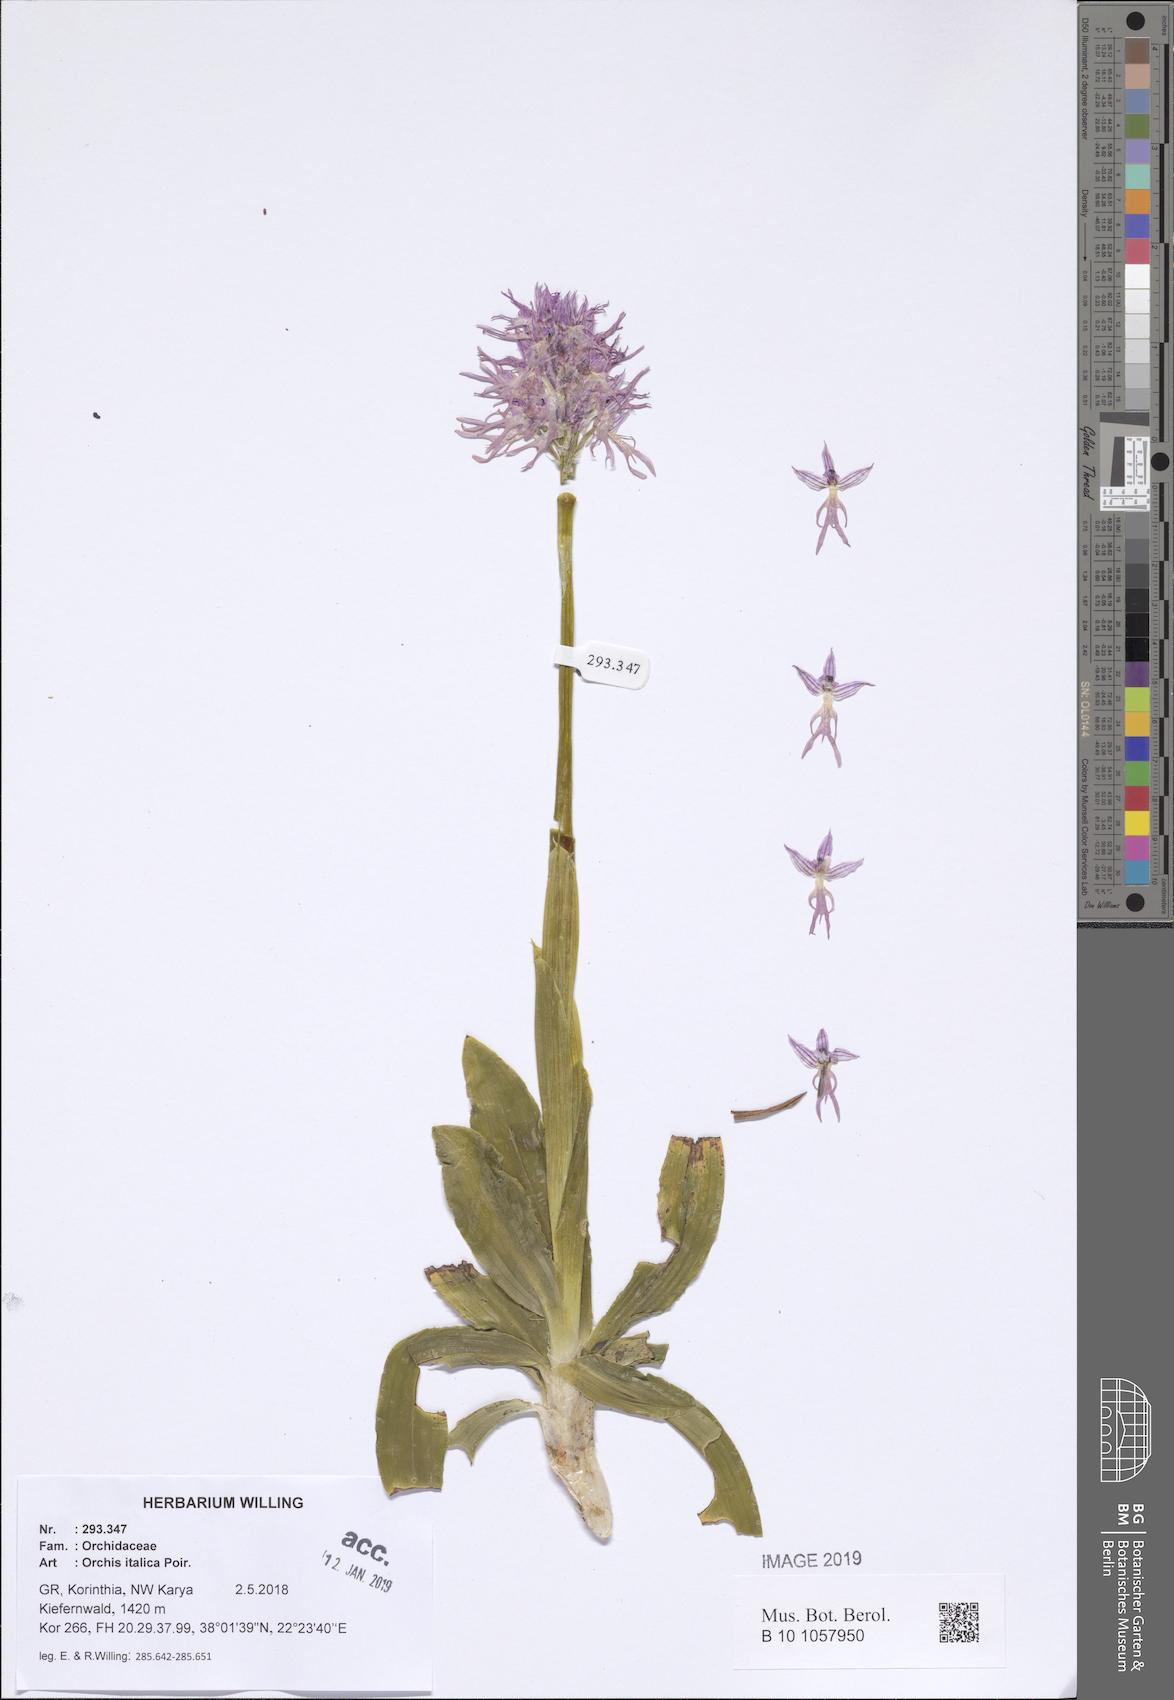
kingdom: Plantae
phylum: Tracheophyta
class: Liliopsida
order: Asparagales
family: Orchidaceae
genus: Orchis
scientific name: Orchis italica
